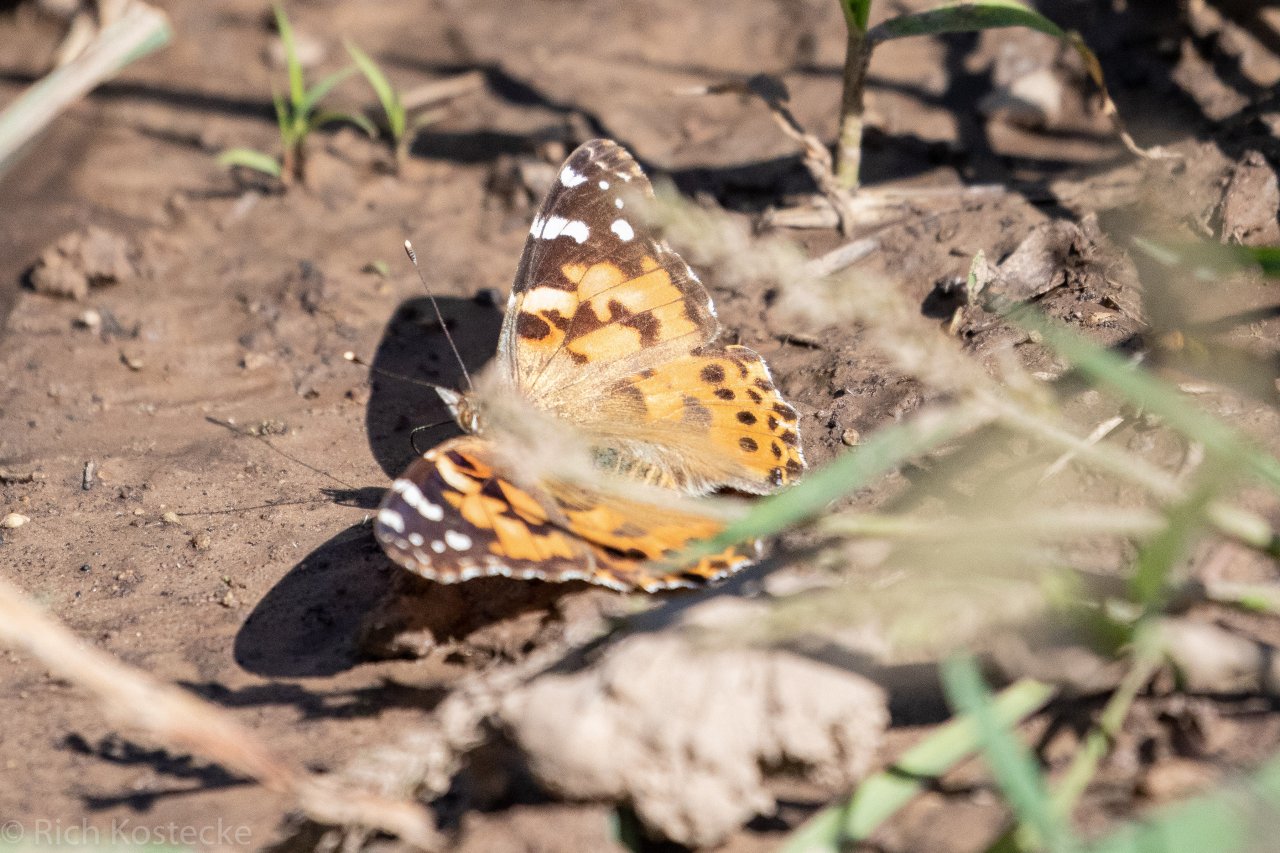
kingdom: Animalia
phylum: Arthropoda
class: Insecta
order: Lepidoptera
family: Nymphalidae
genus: Vanessa
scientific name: Vanessa cardui
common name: Painted Lady
